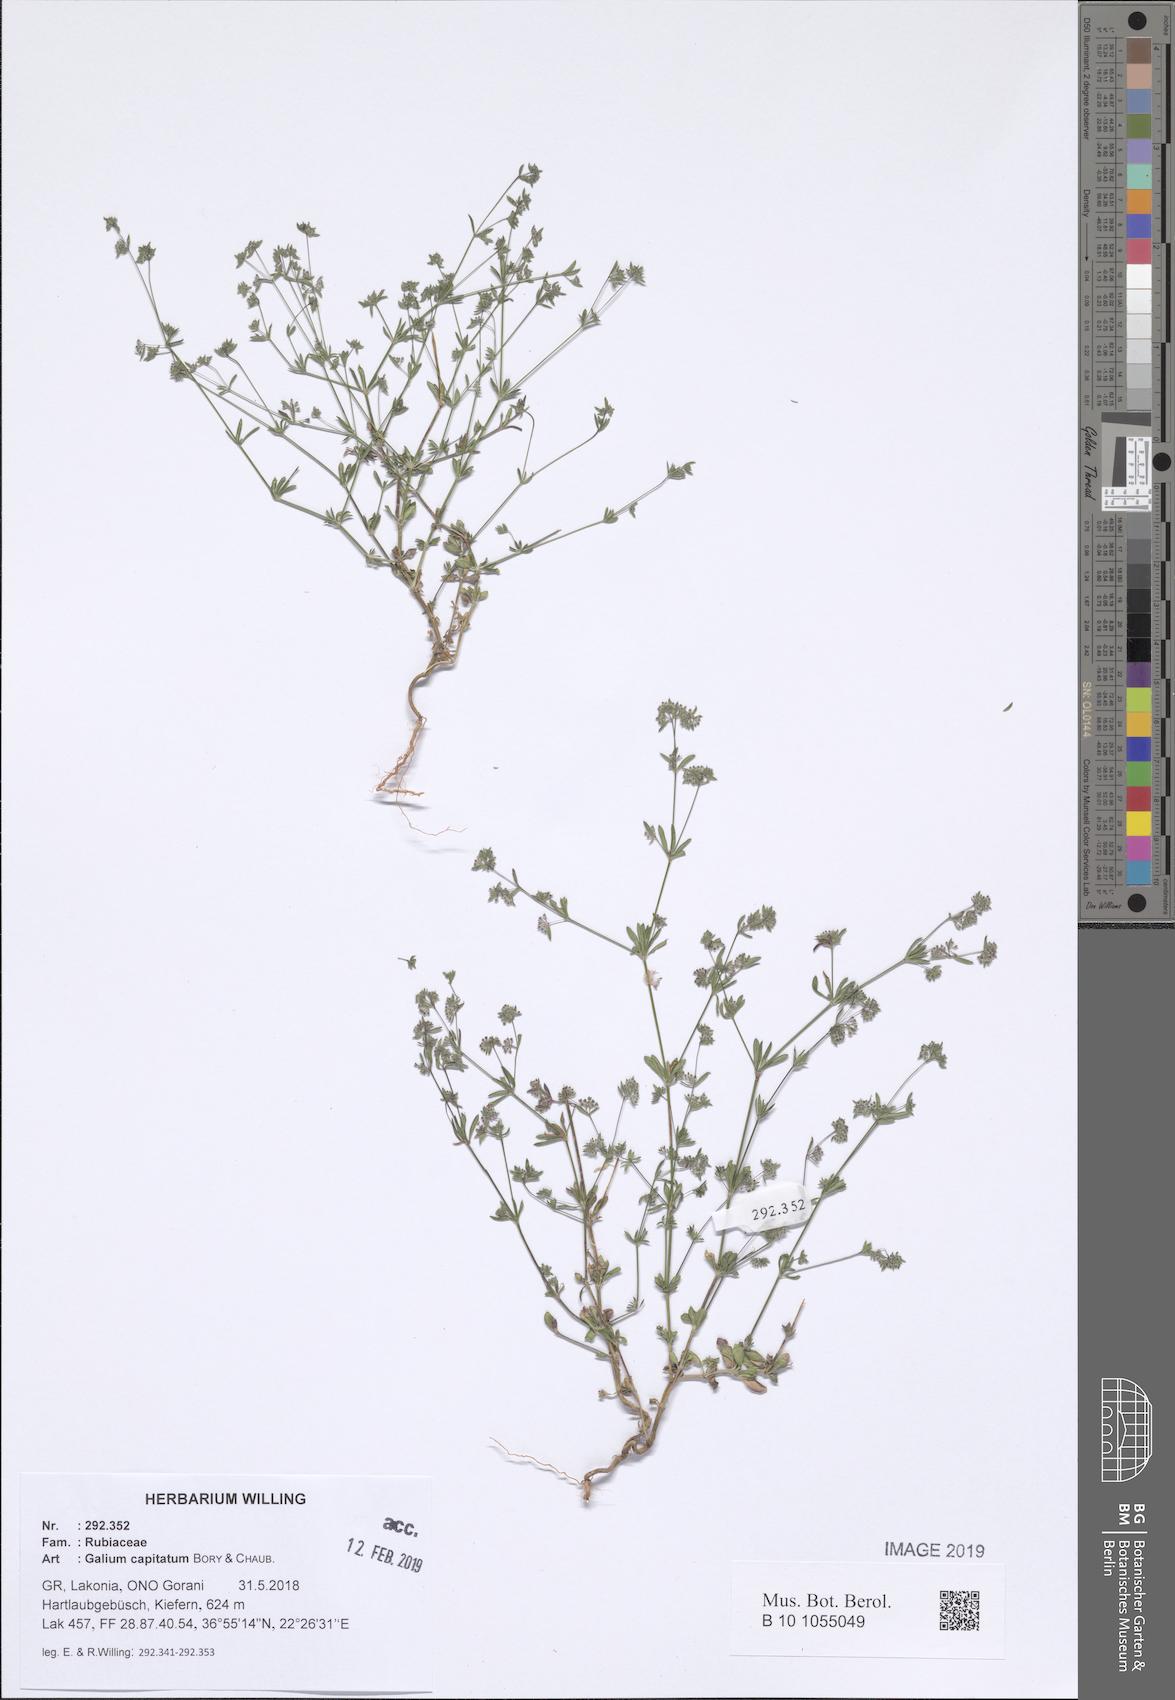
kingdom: Plantae
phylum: Tracheophyta
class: Magnoliopsida
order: Gentianales
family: Rubiaceae
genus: Galium
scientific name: Galium capitatum
